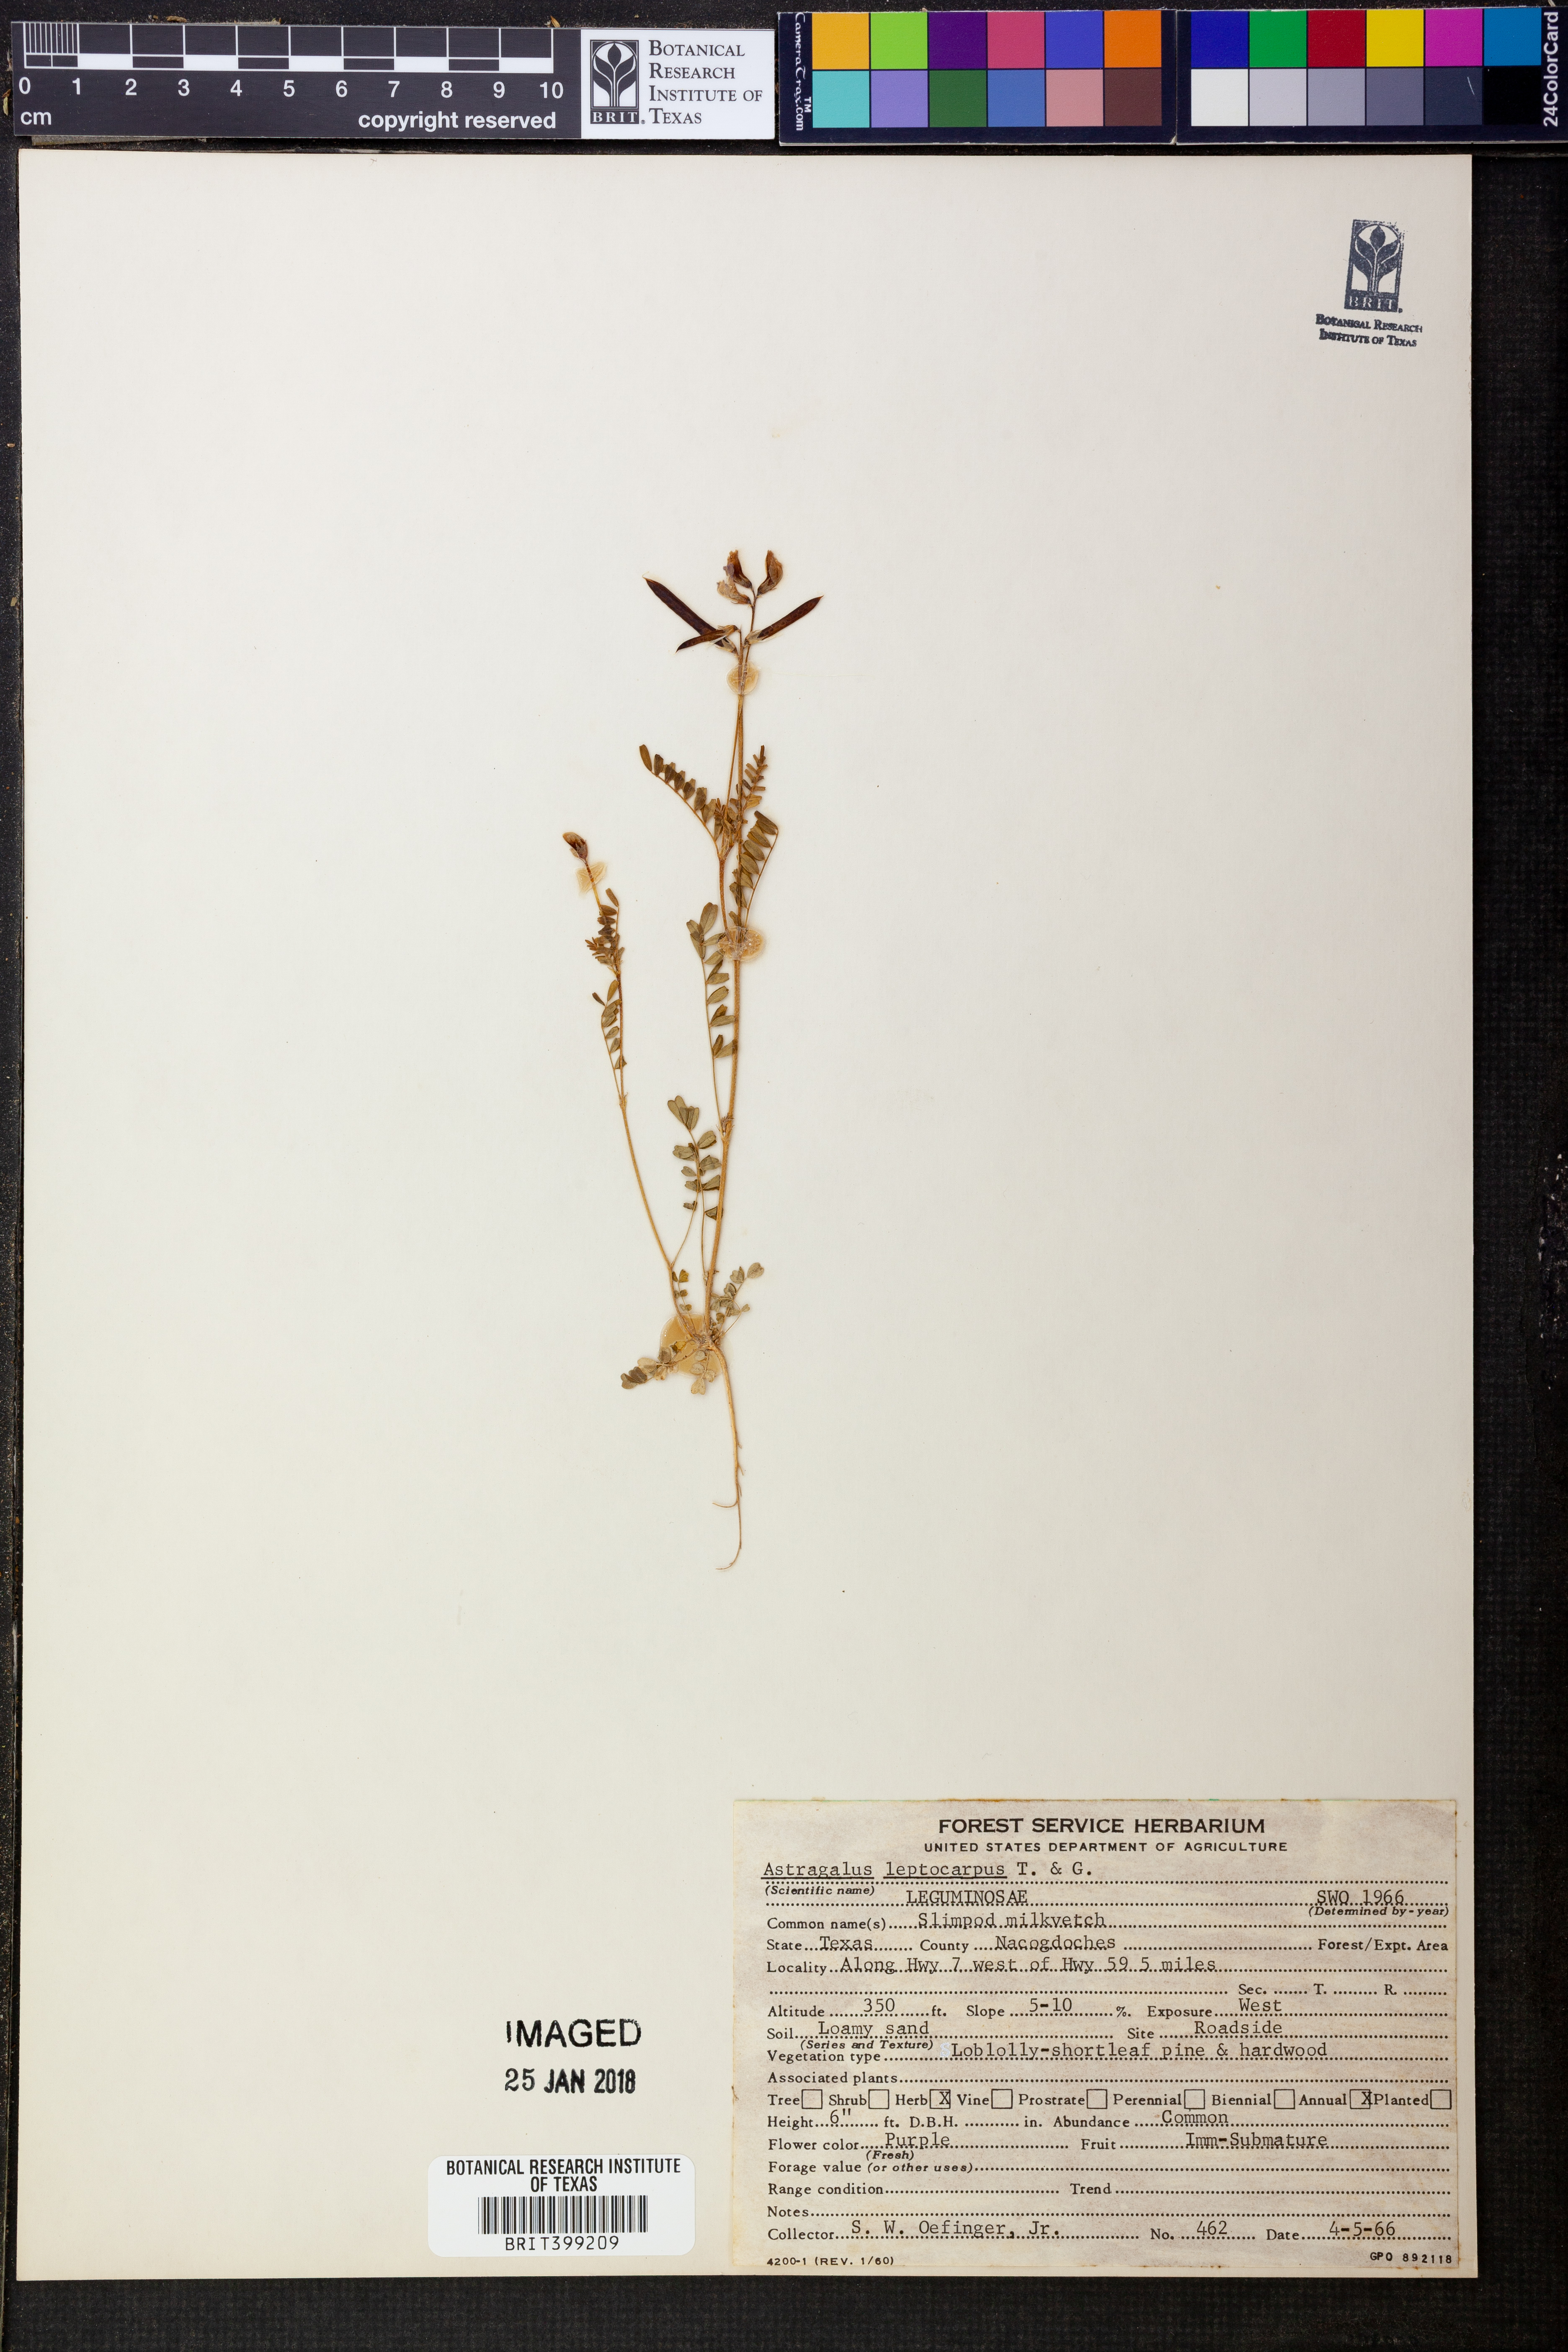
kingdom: Plantae
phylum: Tracheophyta
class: Magnoliopsida
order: Fabales
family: Fabaceae
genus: Astragalus
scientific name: Astragalus leptocarpus
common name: Bodkin milk-vetch
